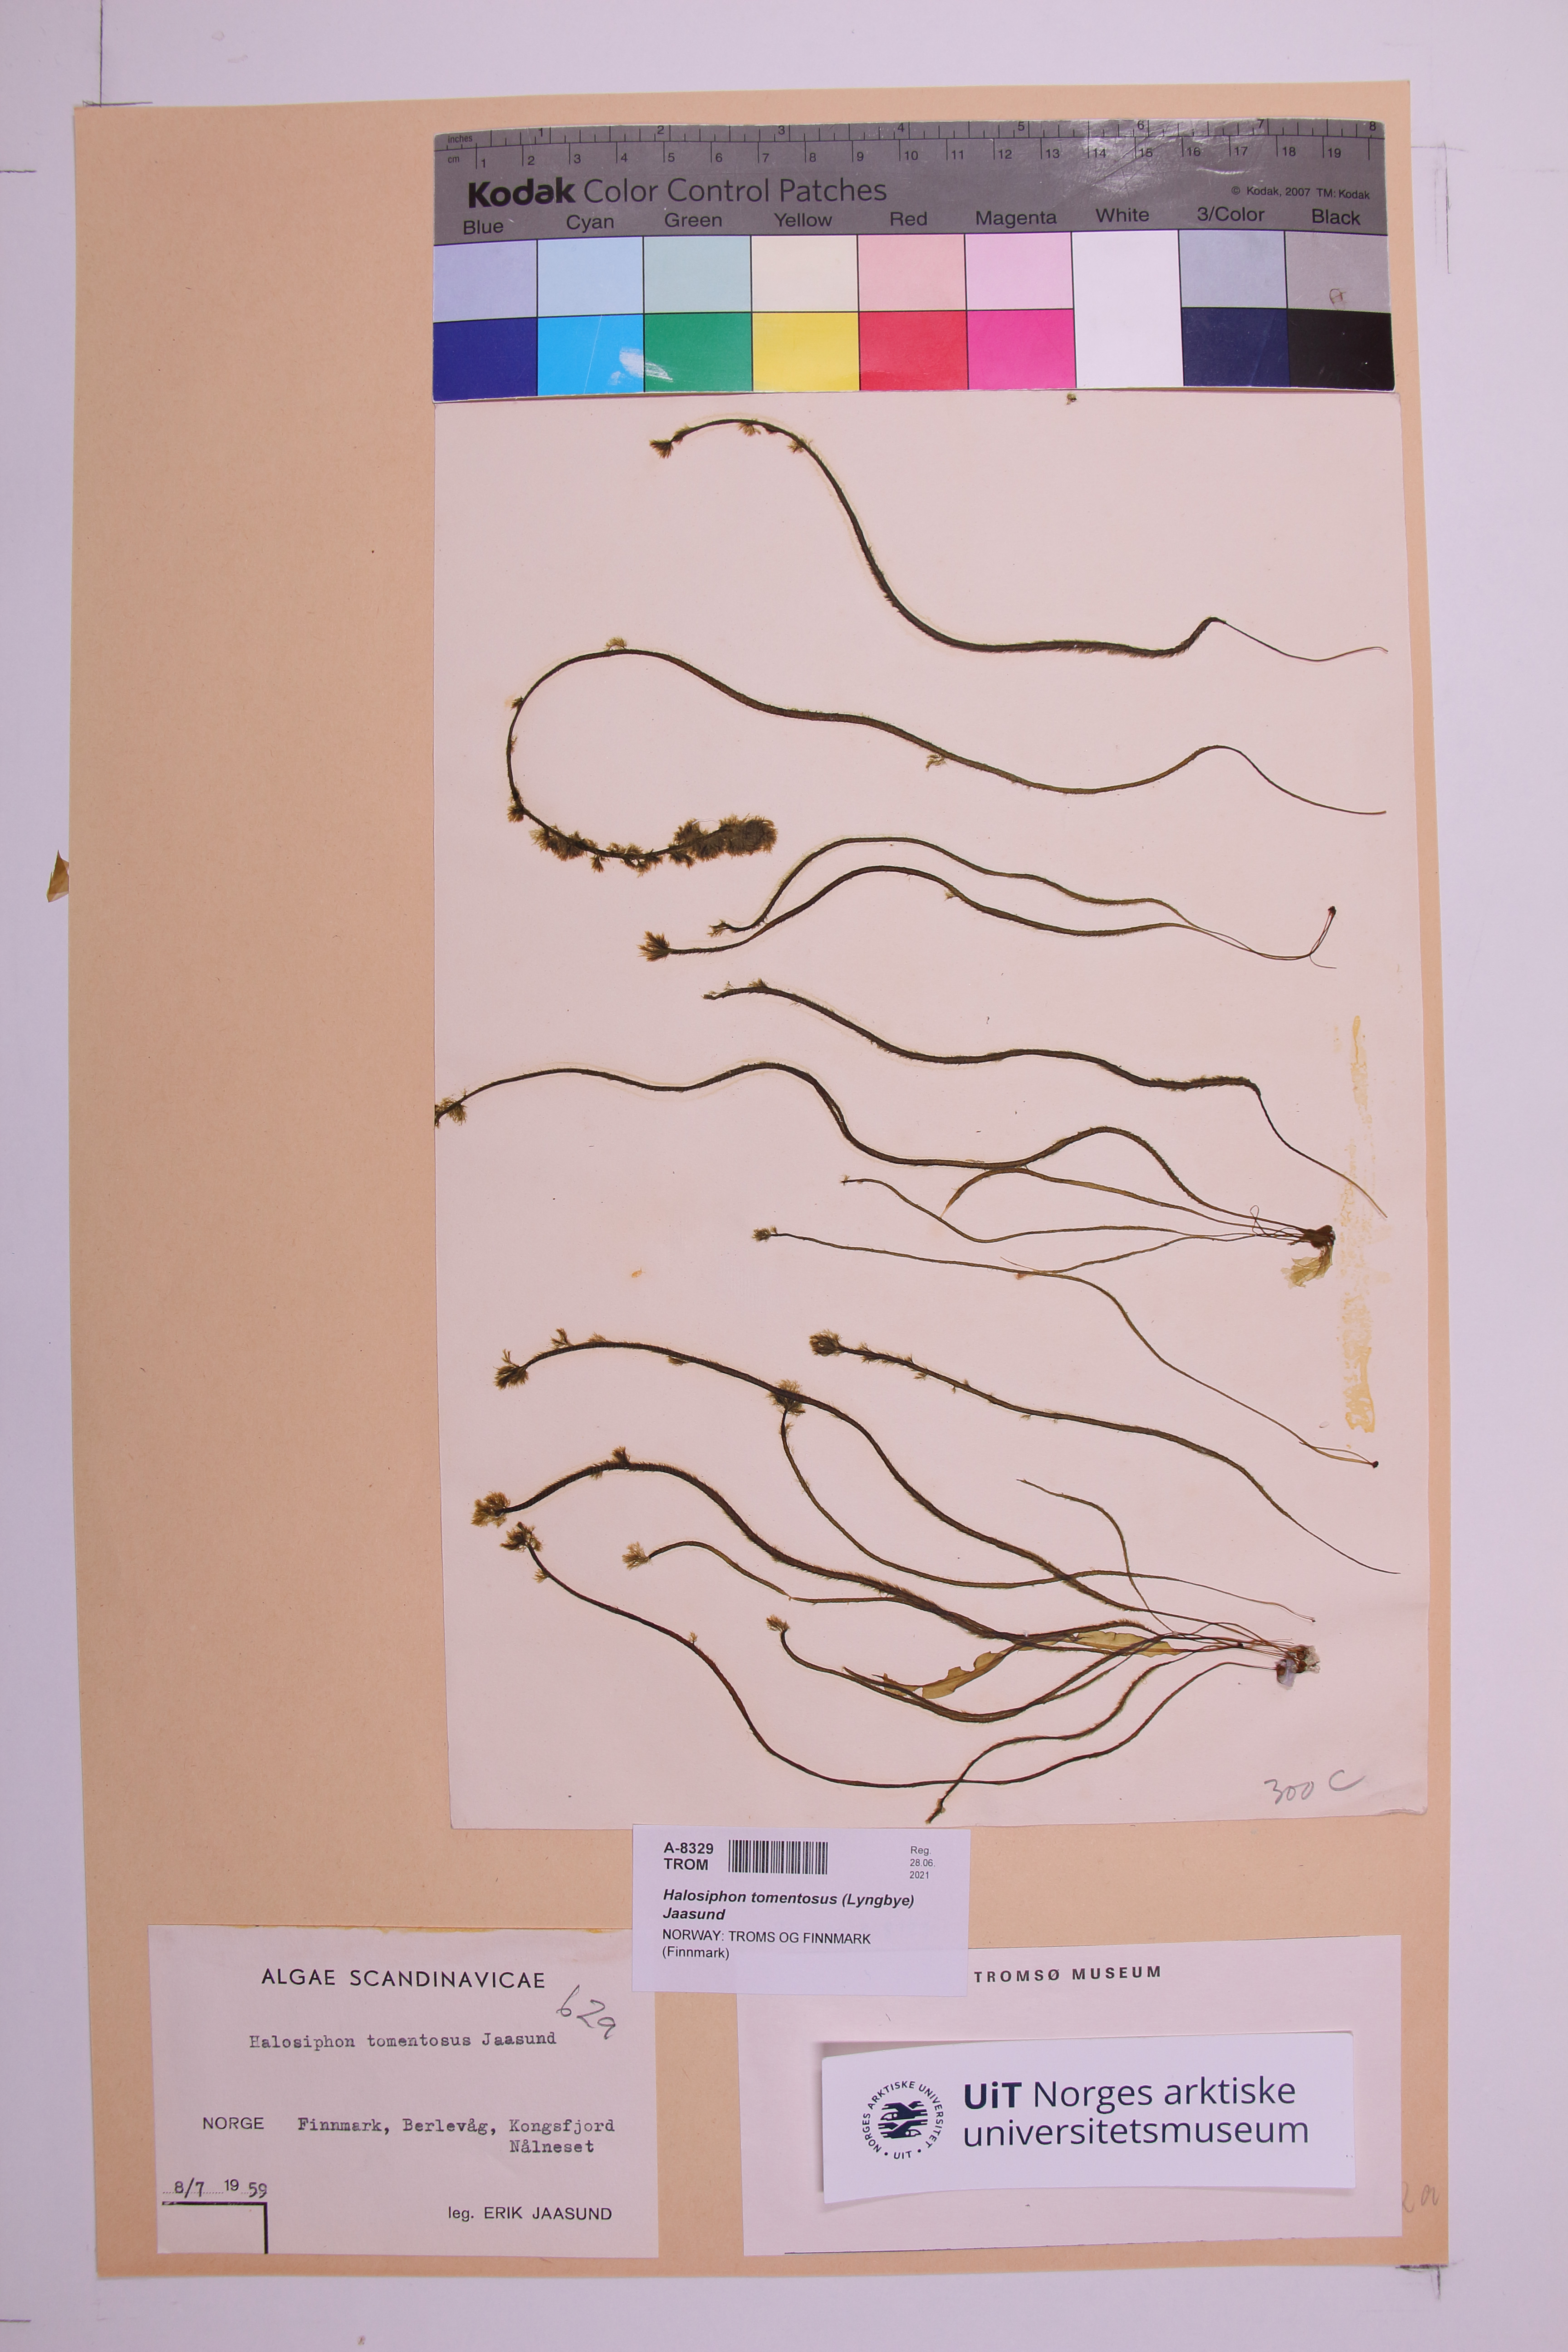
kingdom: Chromista
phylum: Ochrophyta
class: Phaeophyceae
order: Tilopteridales
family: Halosiphonaceae
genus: Halosiphon
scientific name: Halosiphon tomentosus
